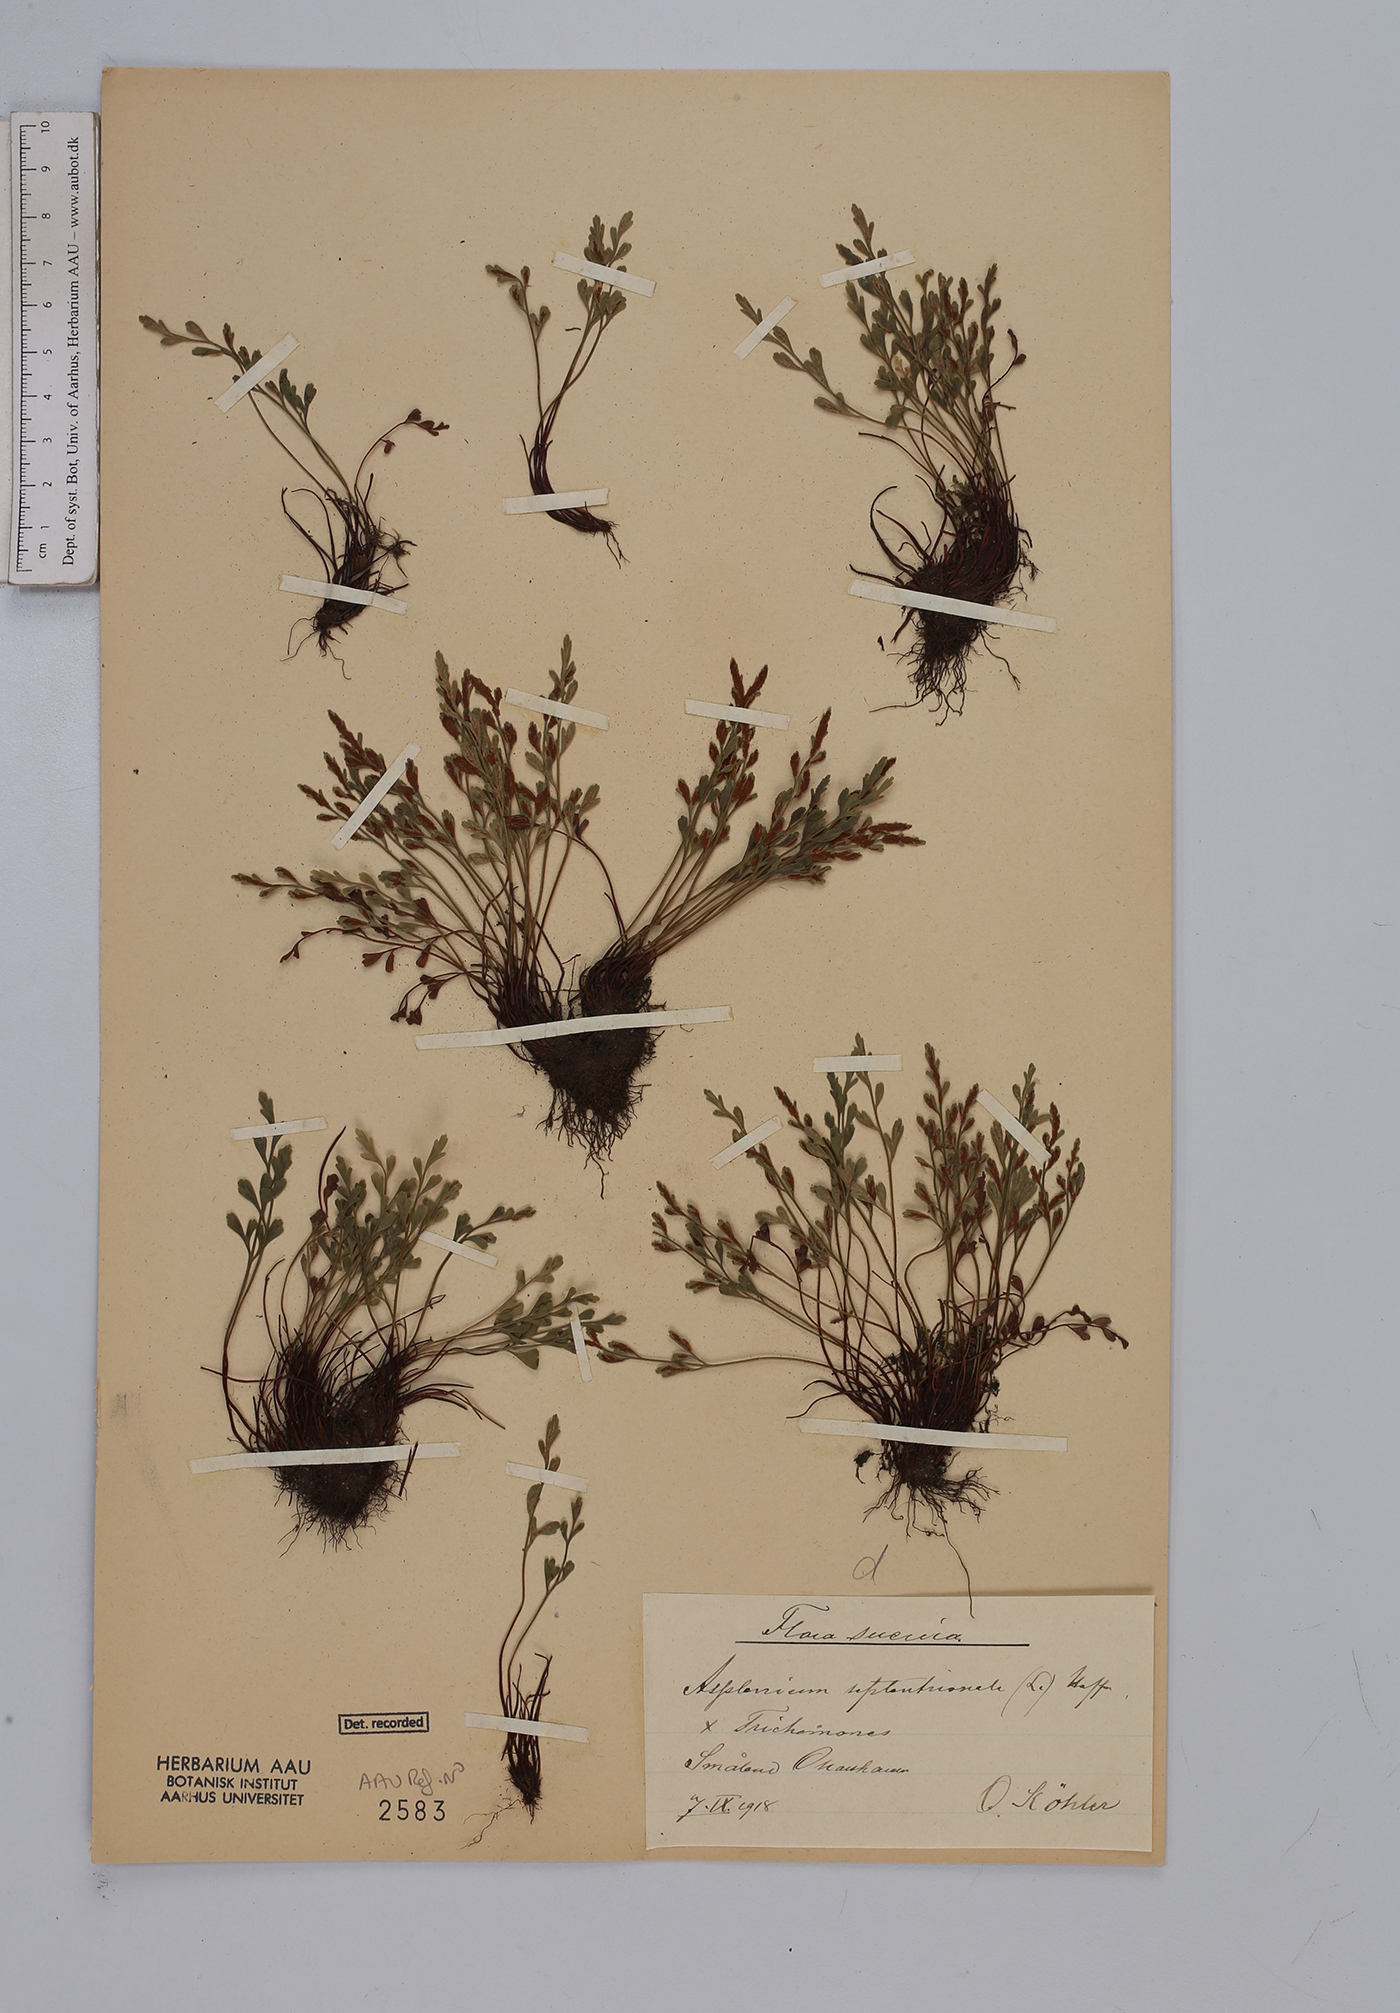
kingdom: Plantae
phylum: Tracheophyta
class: Polypodiopsida
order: Polypodiales
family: Aspleniaceae
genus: Asplenium
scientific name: Asplenium
